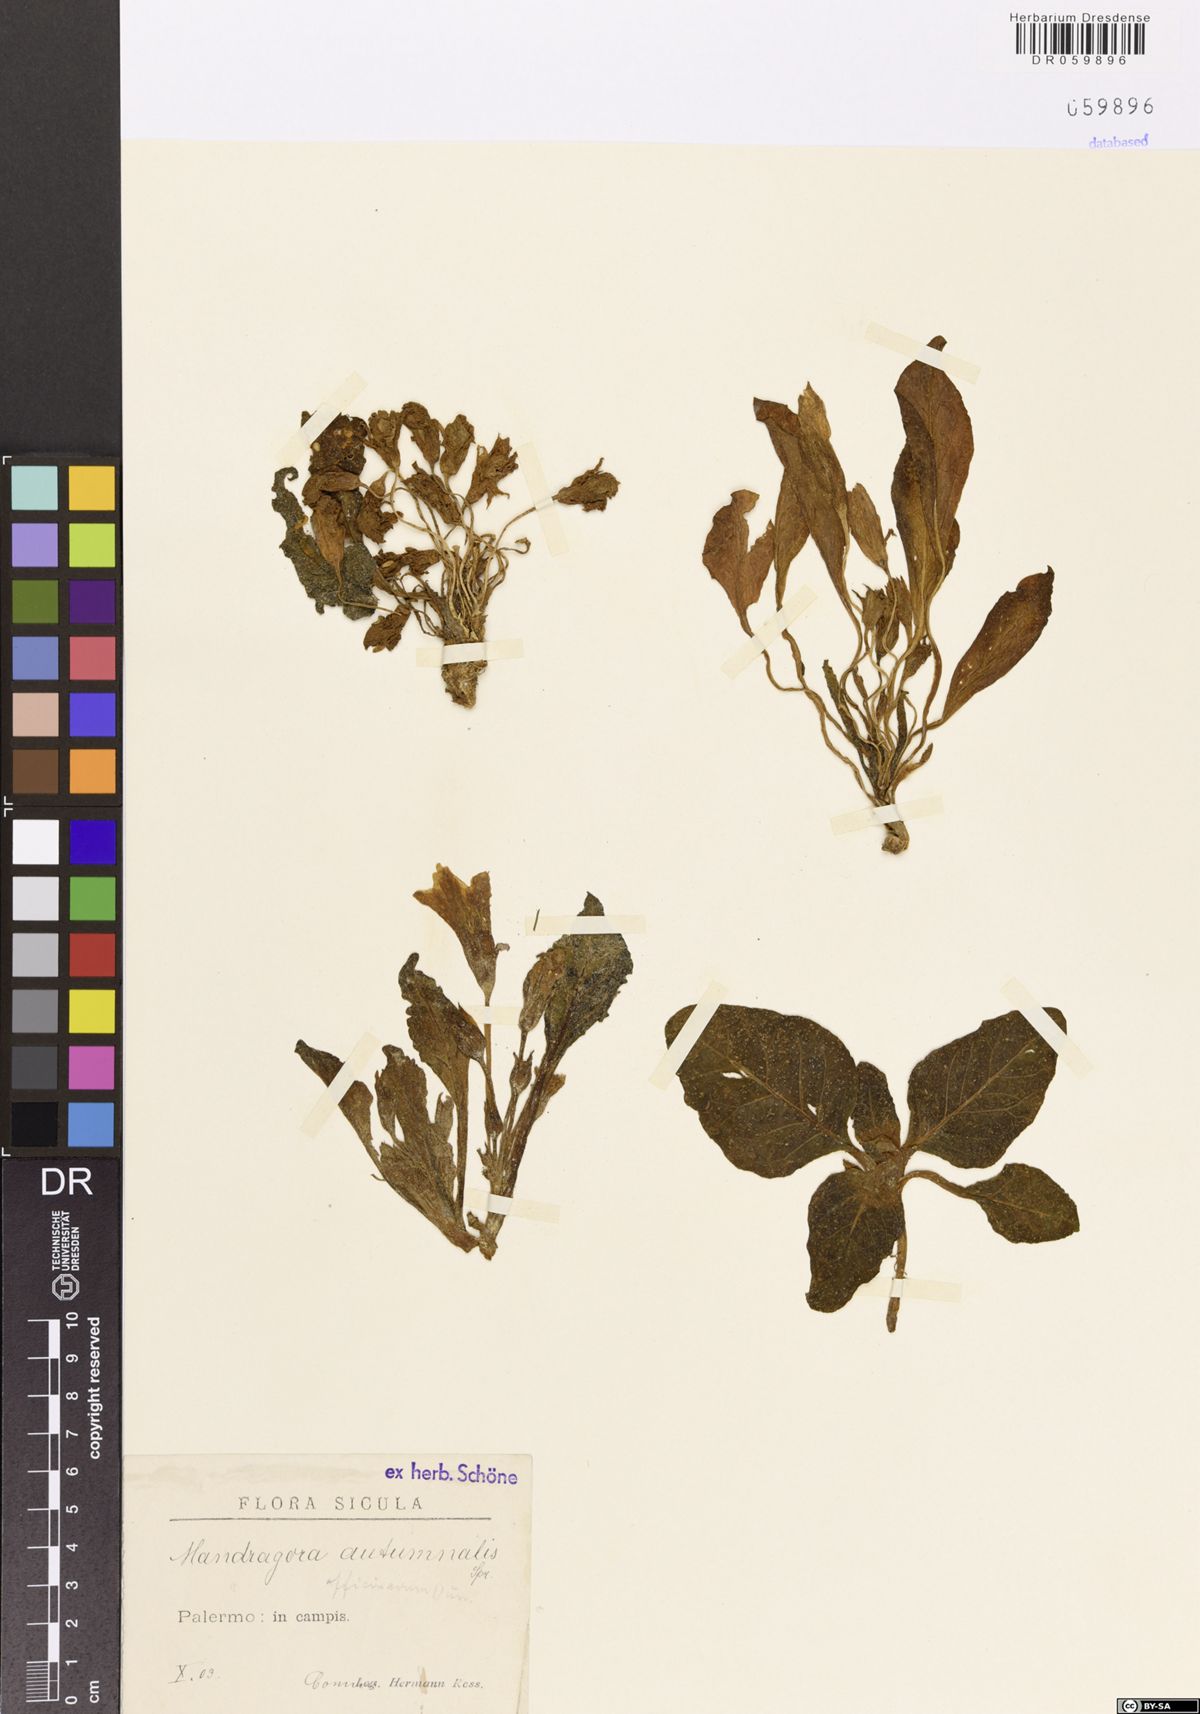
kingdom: Plantae
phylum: Tracheophyta
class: Magnoliopsida
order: Solanales
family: Solanaceae
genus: Mandragora
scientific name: Mandragora officinarum
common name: Mandrake
